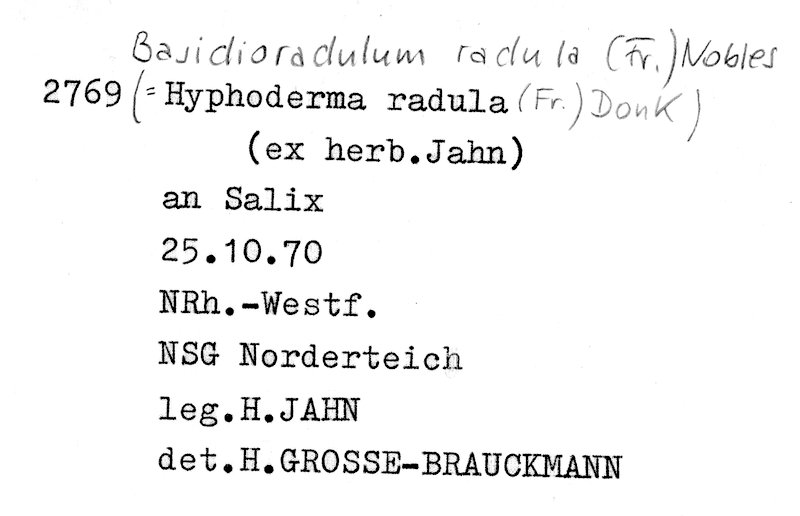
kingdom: Fungi
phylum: Basidiomycota
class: Agaricomycetes
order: Hymenochaetales
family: Schizoporaceae
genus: Xylodon
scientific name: Xylodon radula
